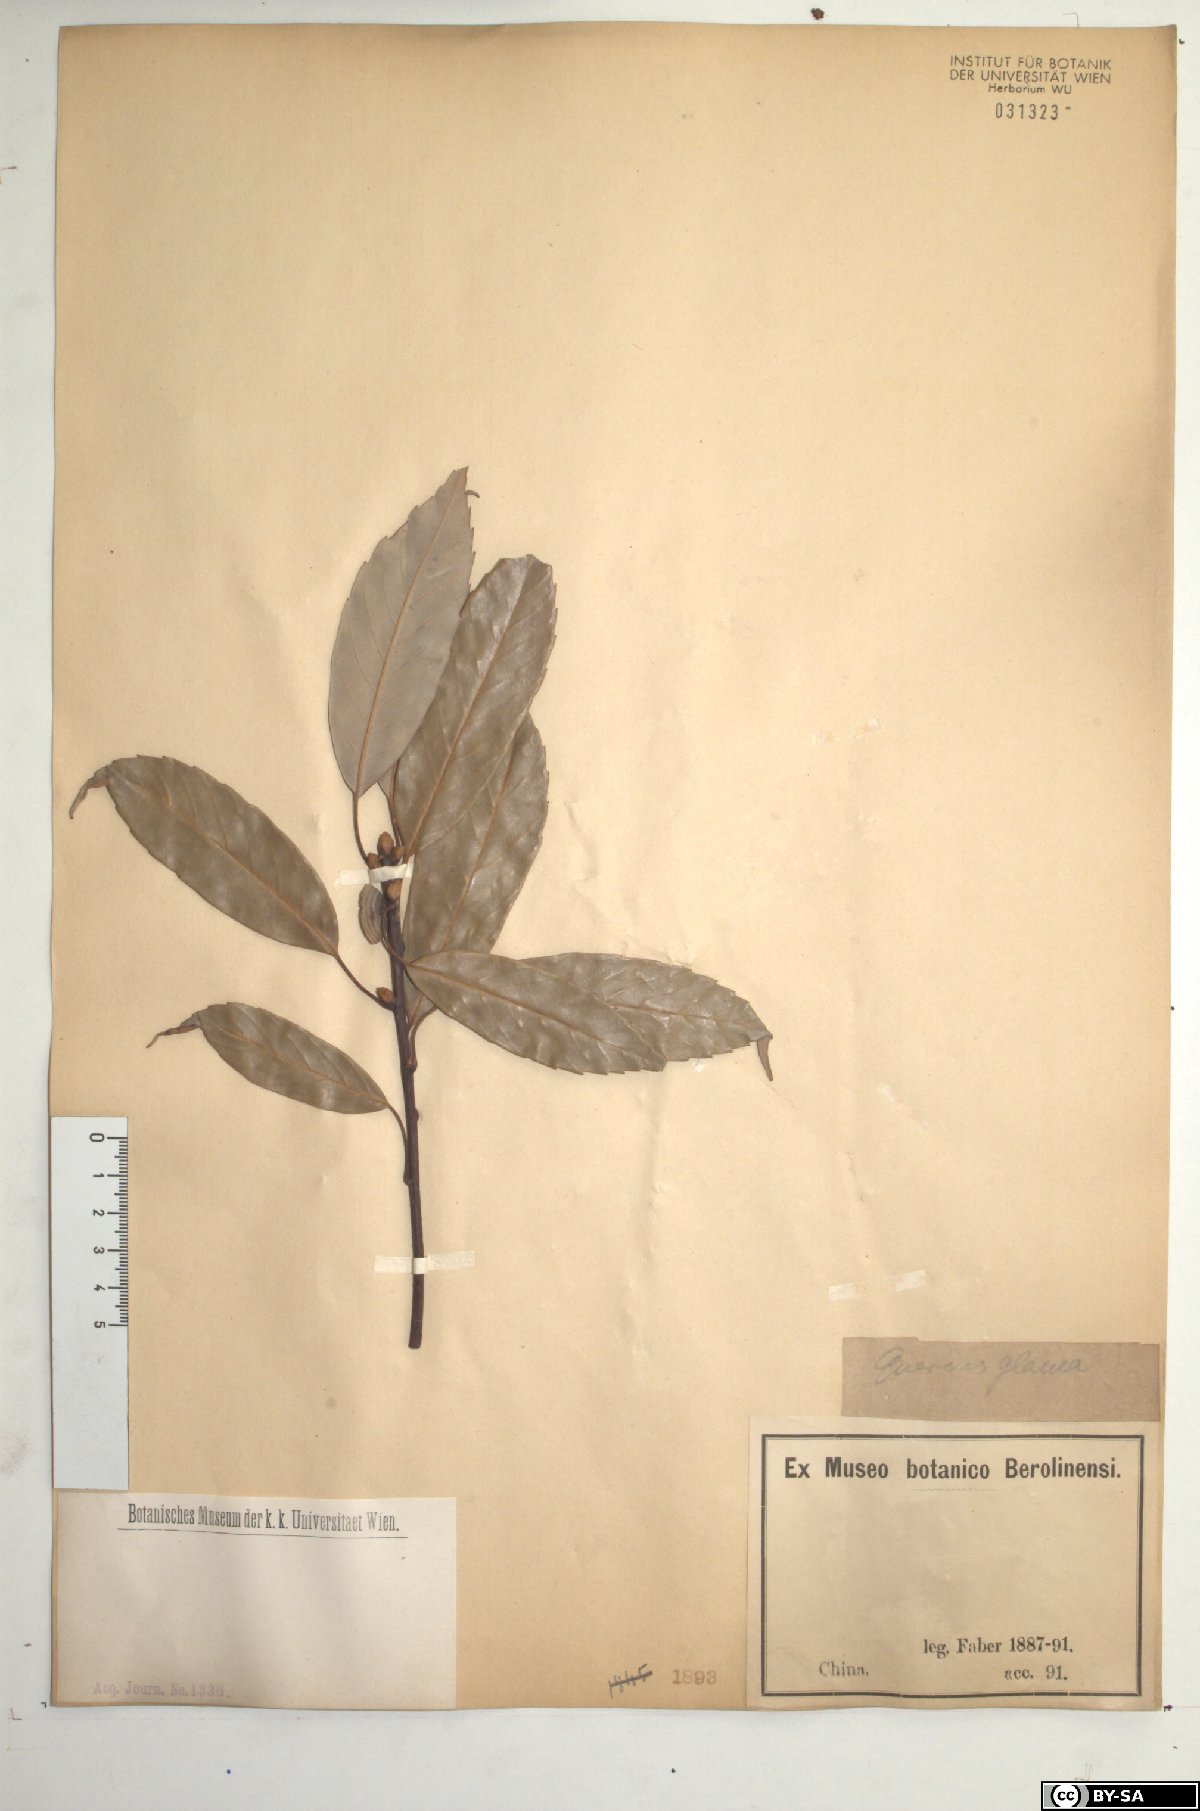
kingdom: Plantae
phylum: Tracheophyta
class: Magnoliopsida
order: Fagales
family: Fagaceae
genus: Quercus
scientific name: Quercus glauca
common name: Ring-cup oak
